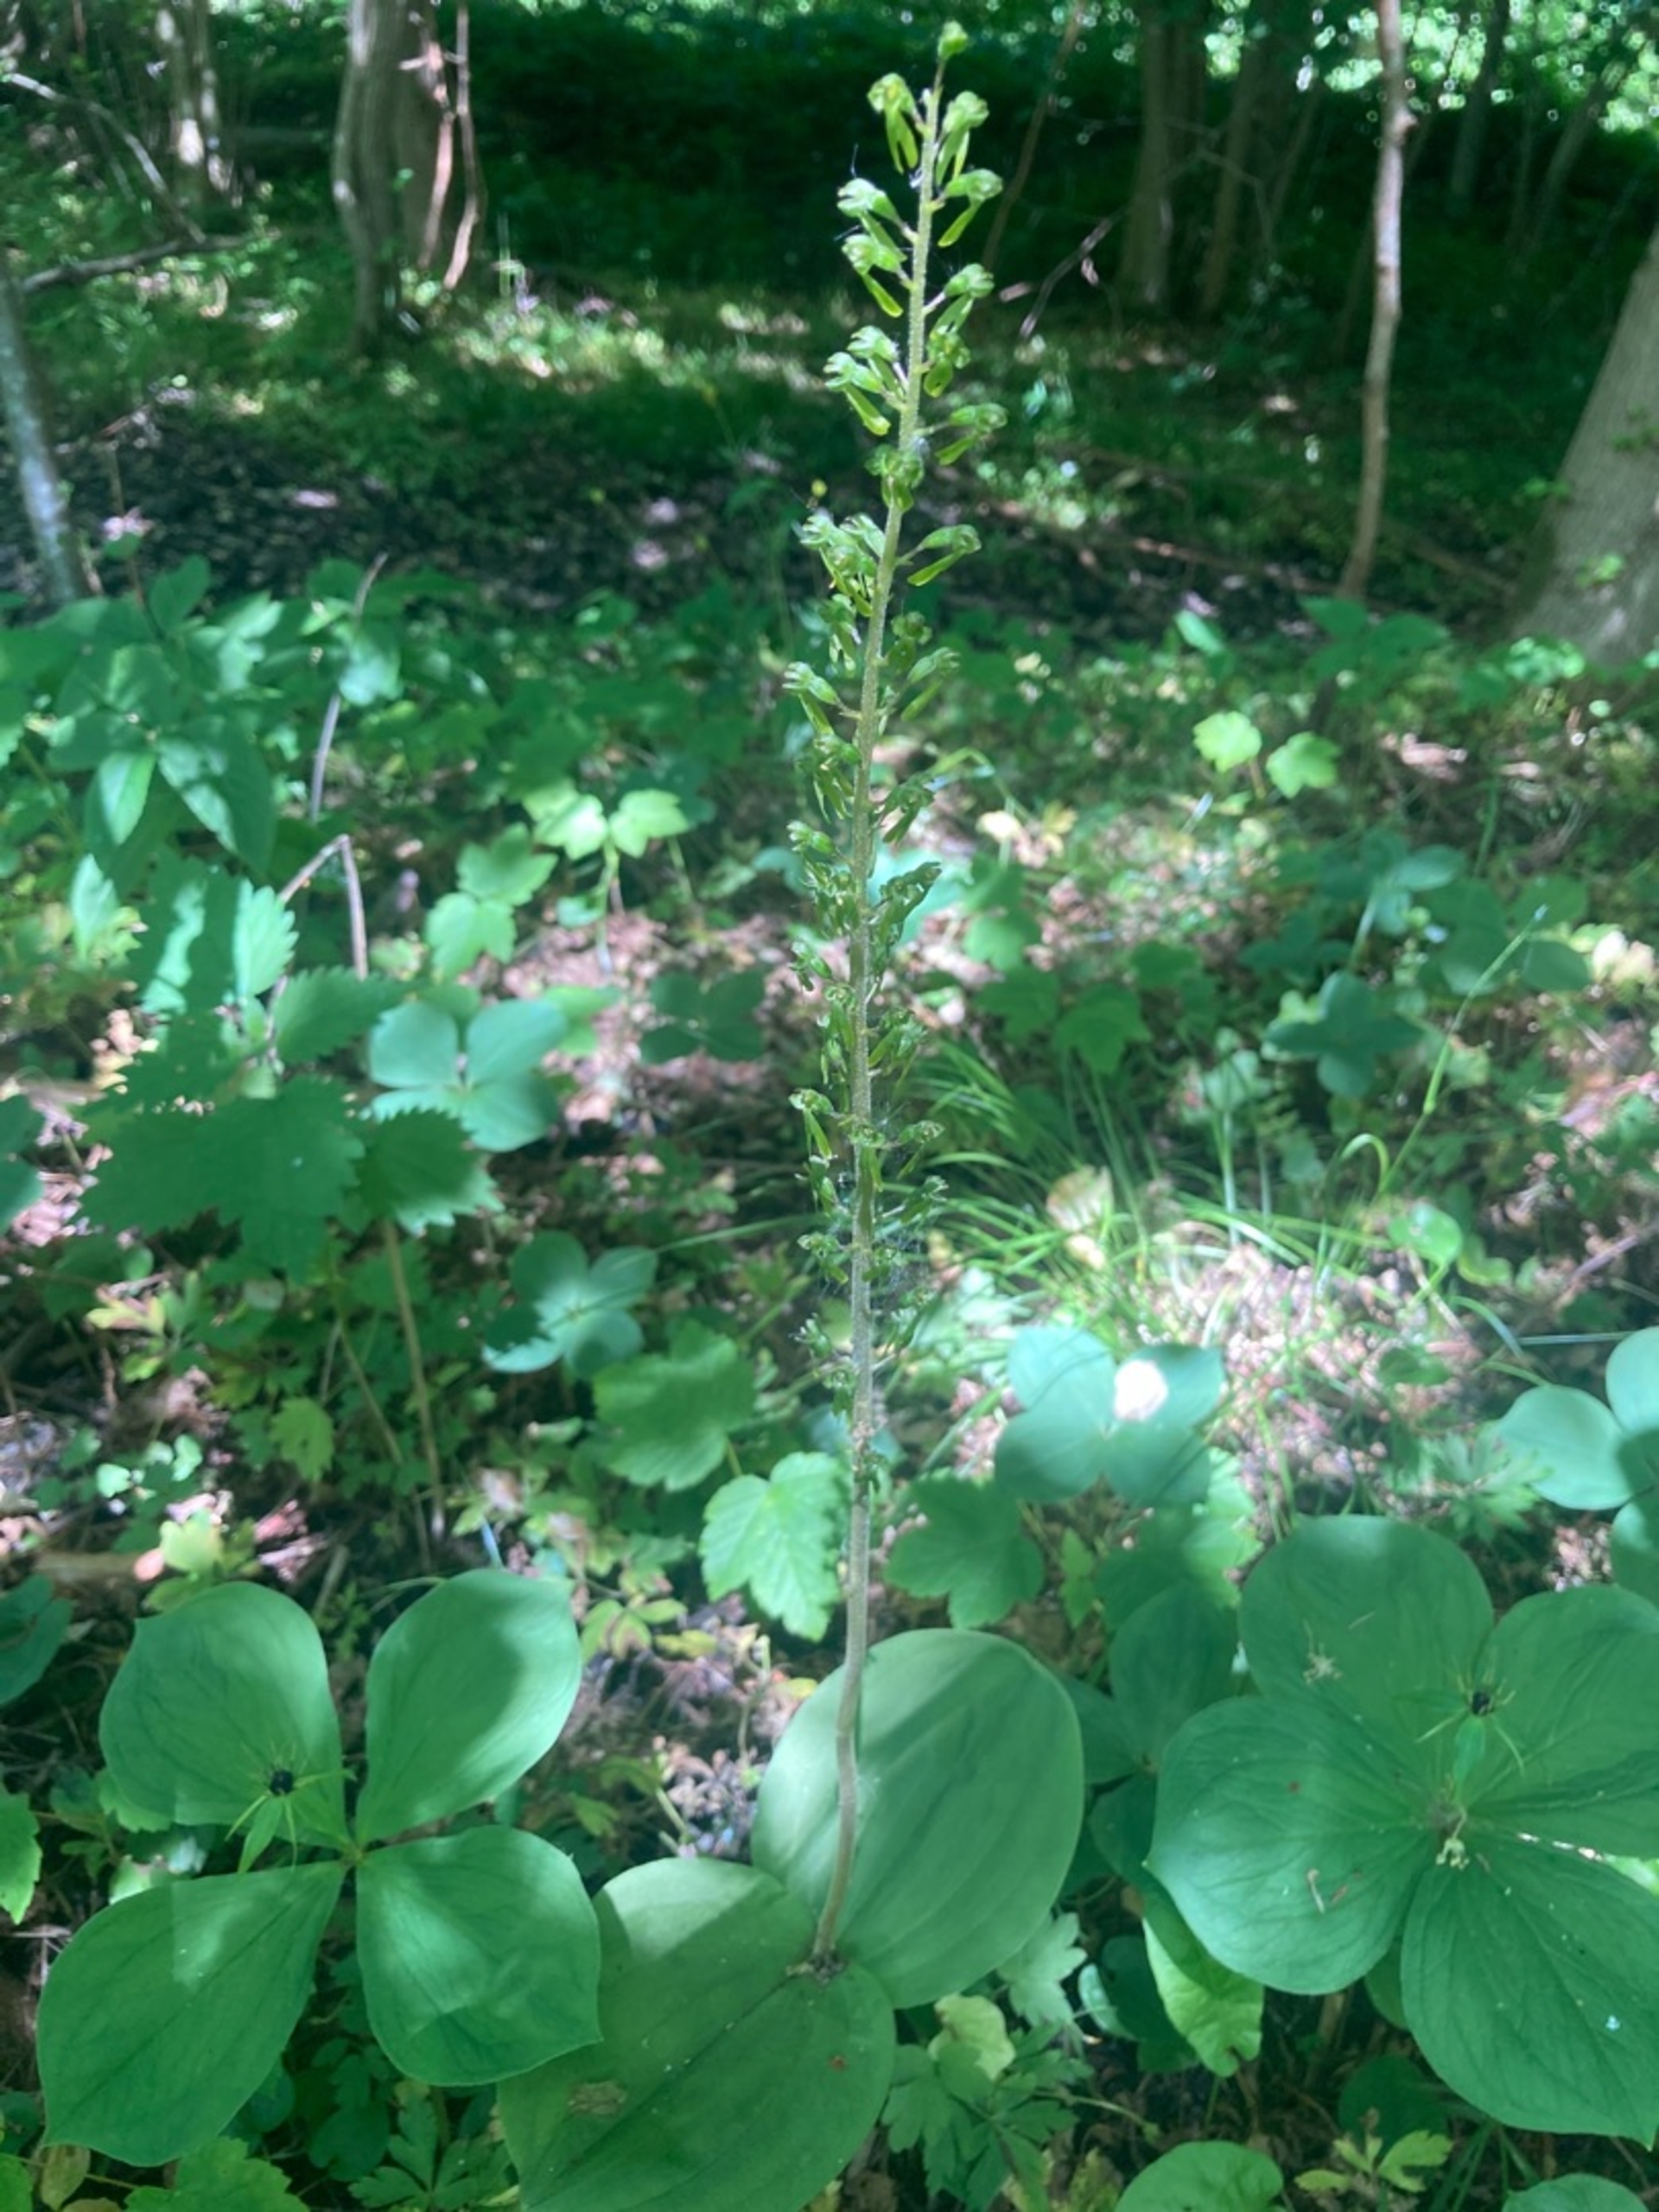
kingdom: Plantae
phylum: Tracheophyta
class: Liliopsida
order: Asparagales
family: Orchidaceae
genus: Neottia
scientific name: Neottia ovata
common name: Ægbladet fliglæbe
